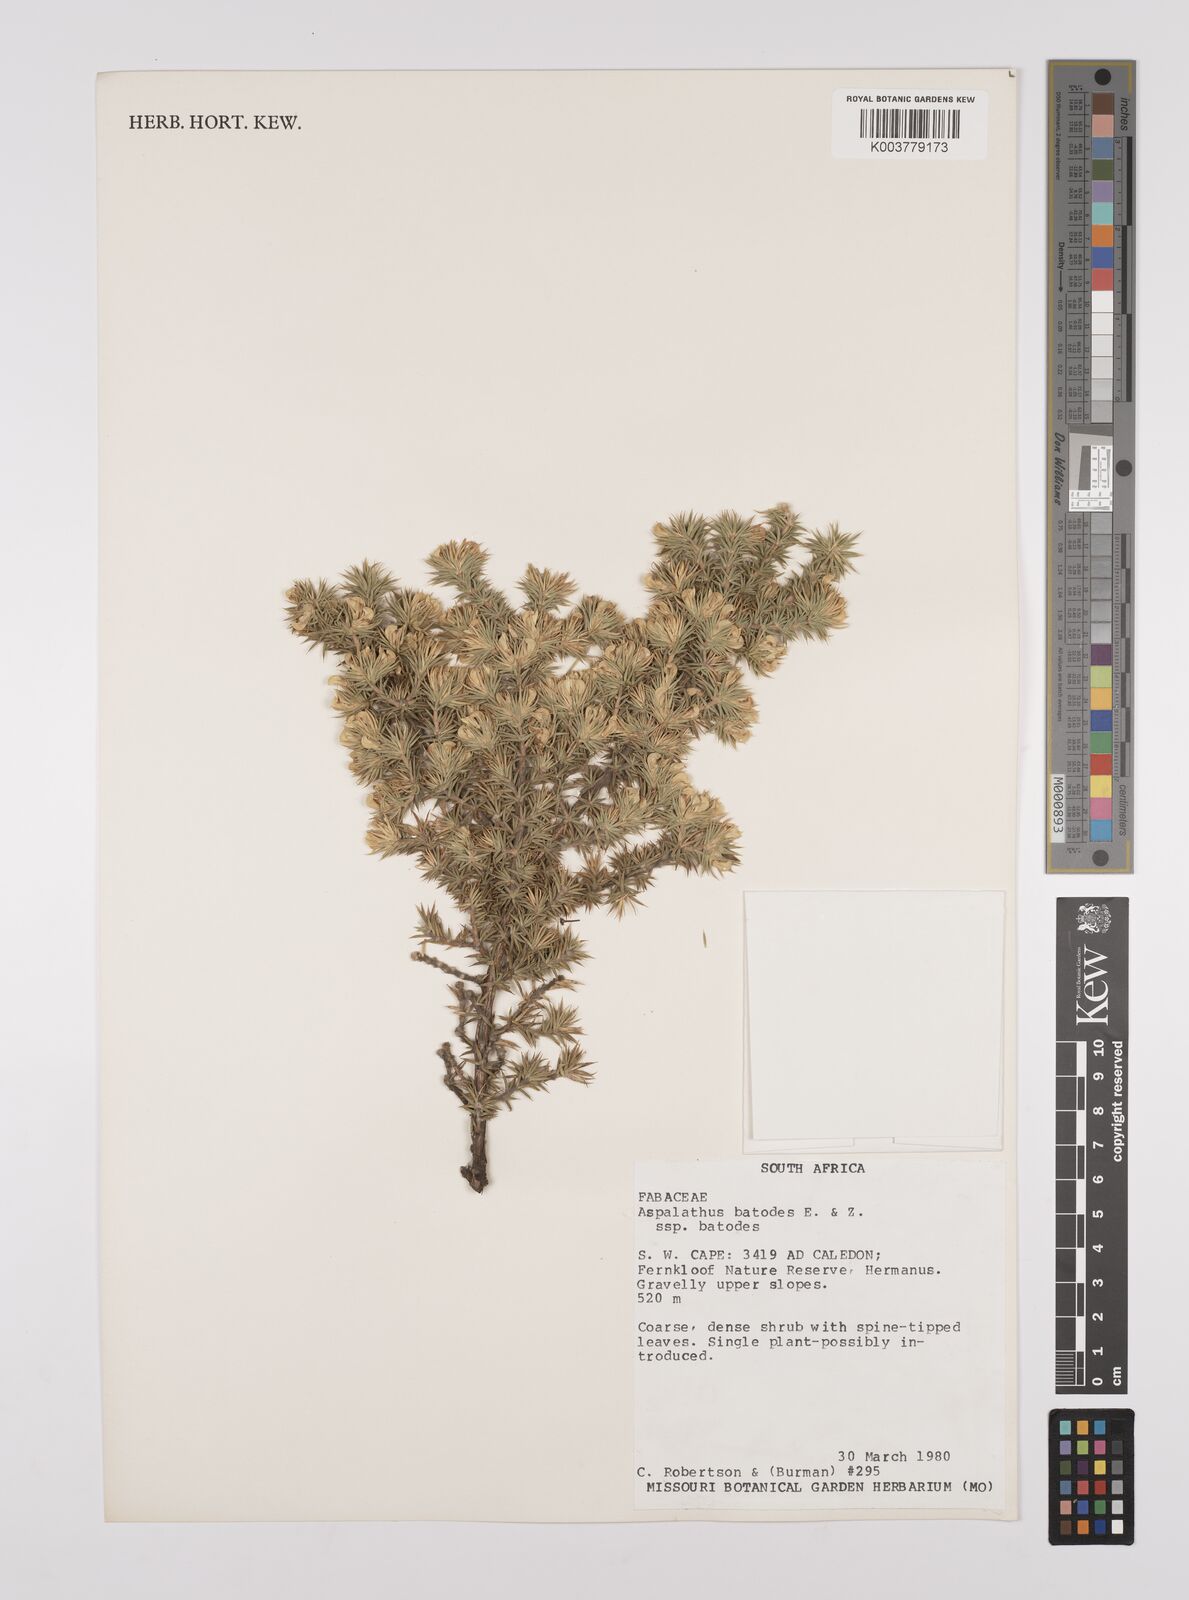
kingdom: Plantae
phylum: Tracheophyta
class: Magnoliopsida
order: Fabales
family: Fabaceae
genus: Aspalathus
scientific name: Aspalathus batodes
